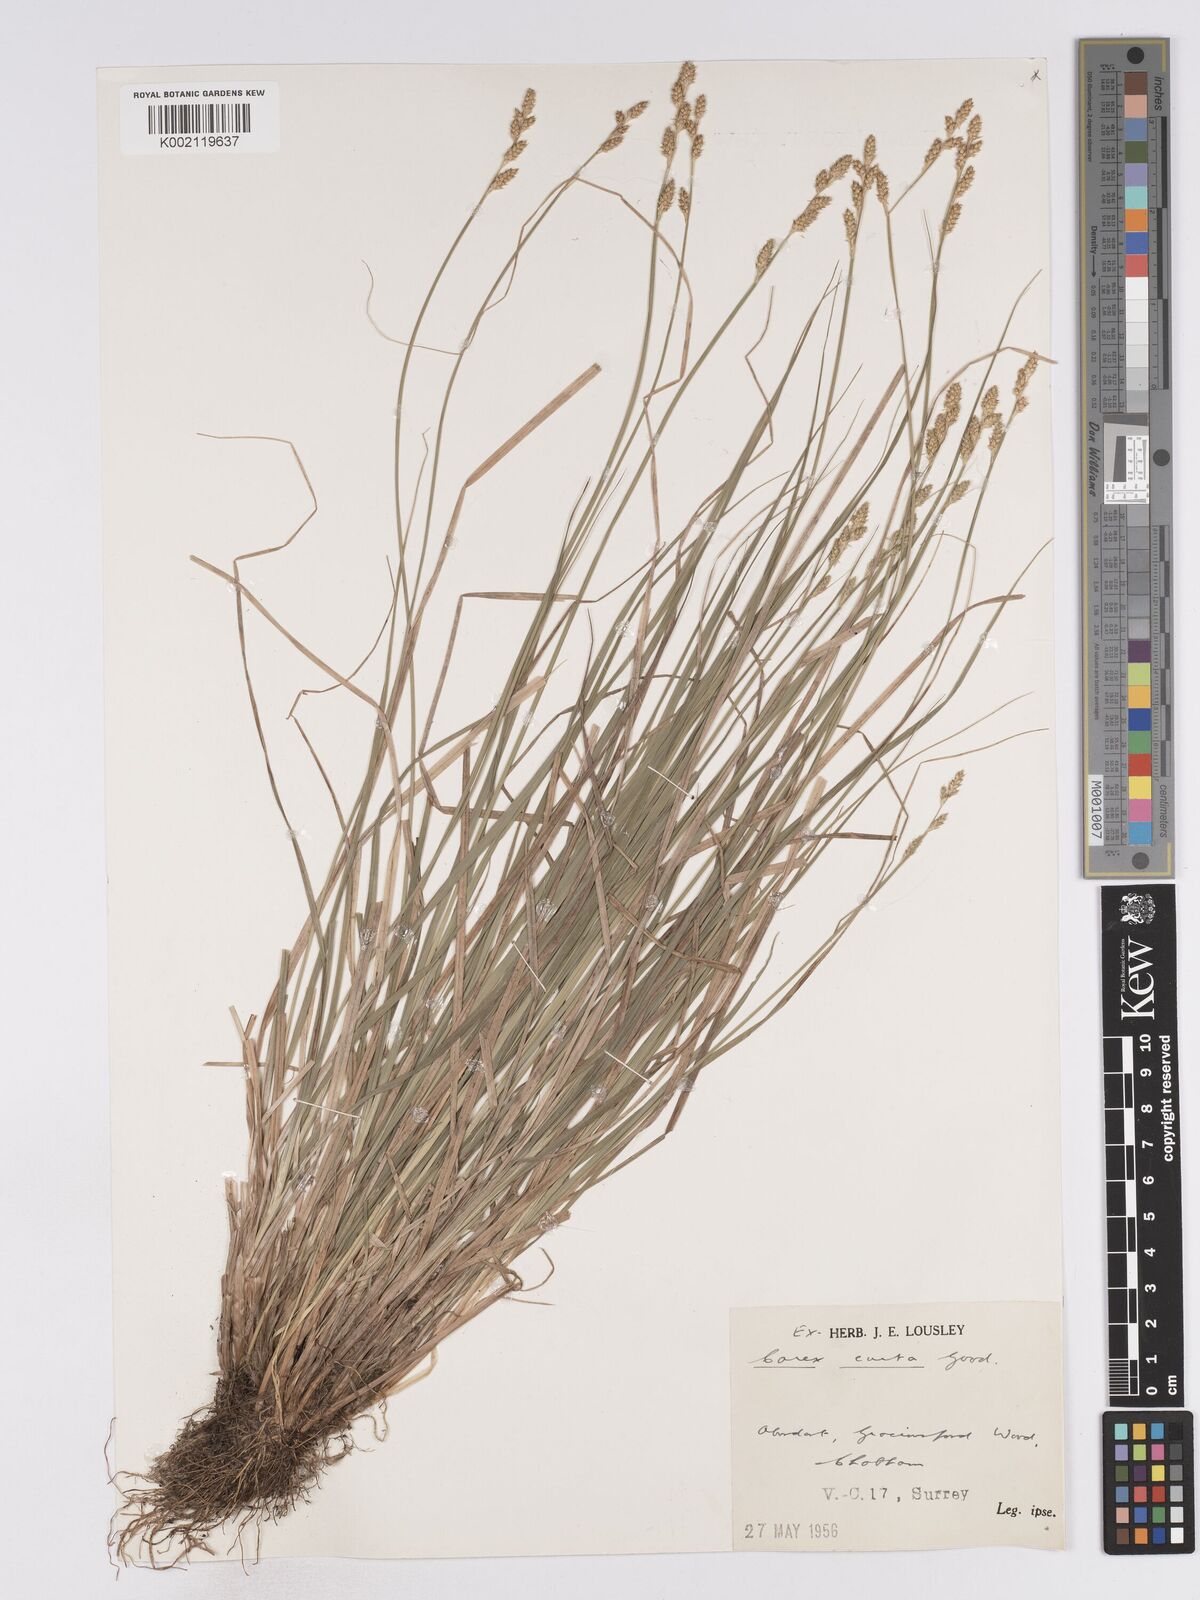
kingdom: Plantae
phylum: Tracheophyta
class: Liliopsida
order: Poales
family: Cyperaceae
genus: Carex
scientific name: Carex curta
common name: White sedge
